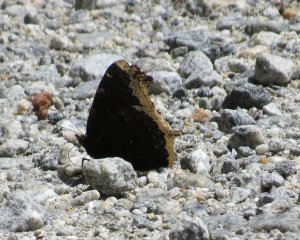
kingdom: Animalia
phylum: Arthropoda
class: Insecta
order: Lepidoptera
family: Nymphalidae
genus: Nymphalis
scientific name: Nymphalis antiopa
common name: Mourning Cloak
